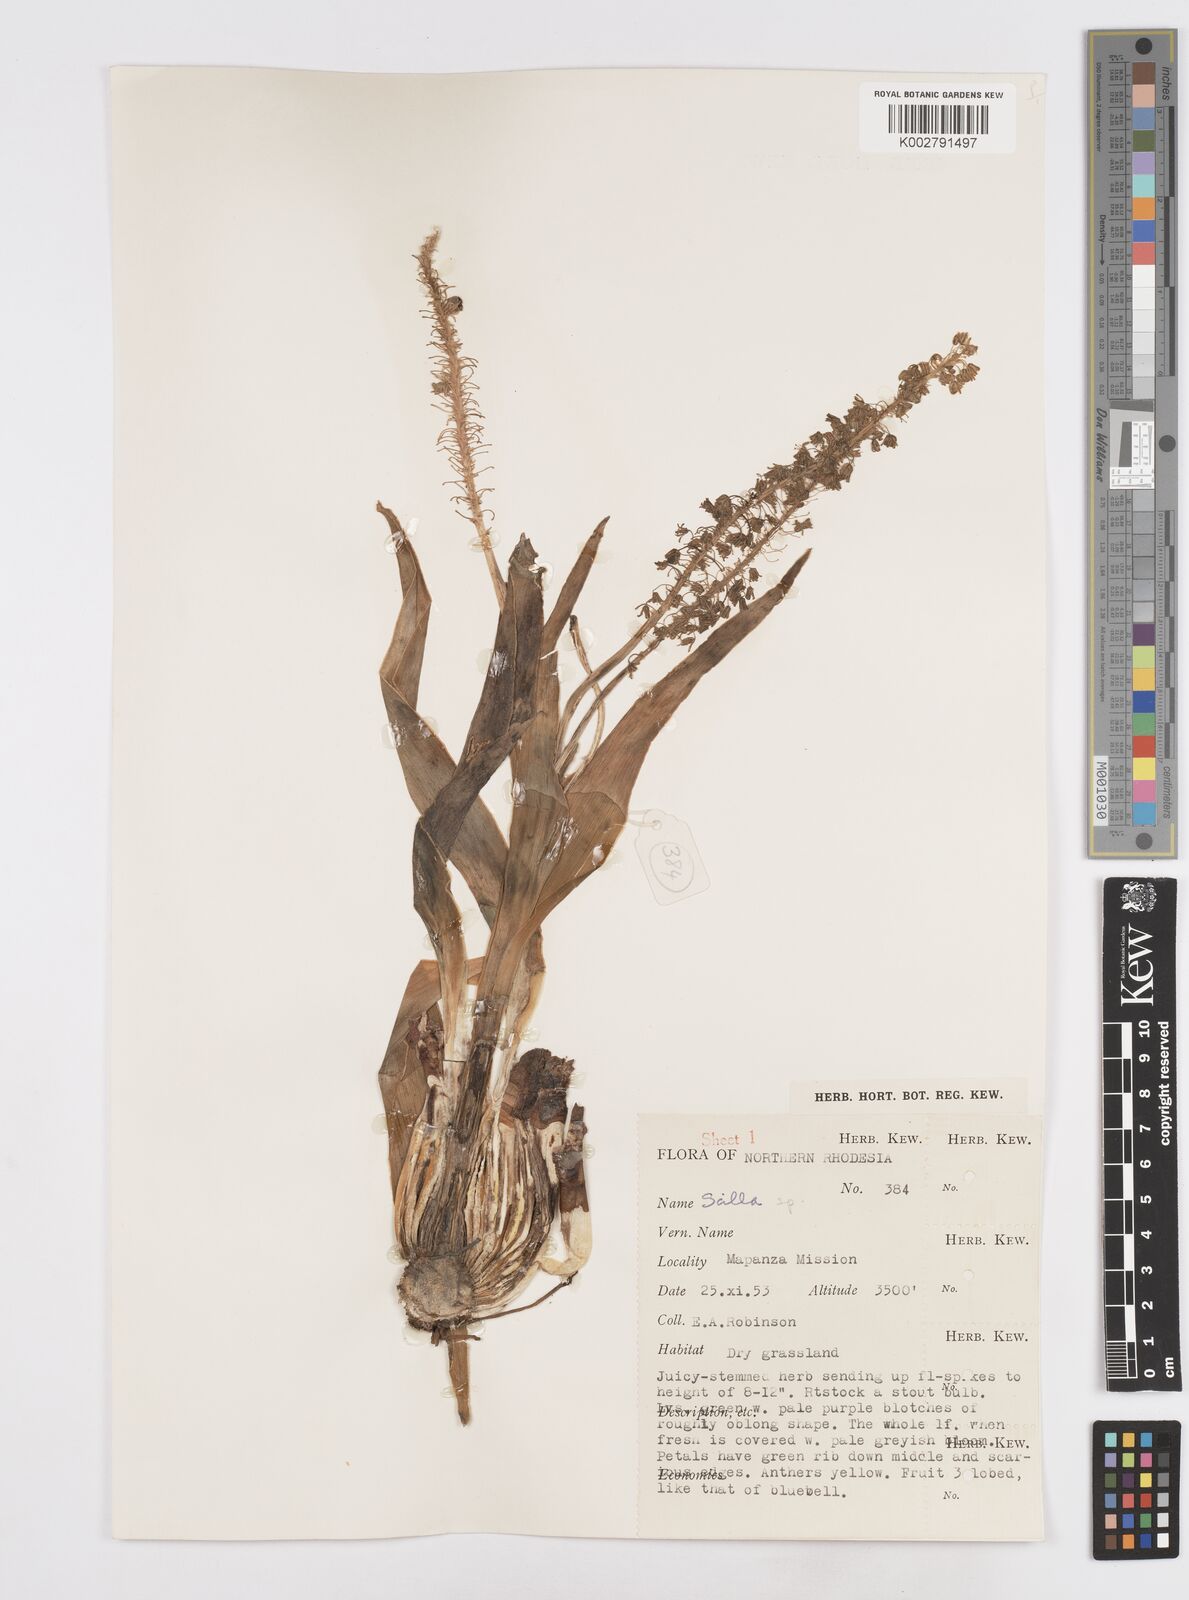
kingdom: Plantae
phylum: Tracheophyta
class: Liliopsida
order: Asparagales
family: Asparagaceae
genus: Scilla
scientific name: Scilla
